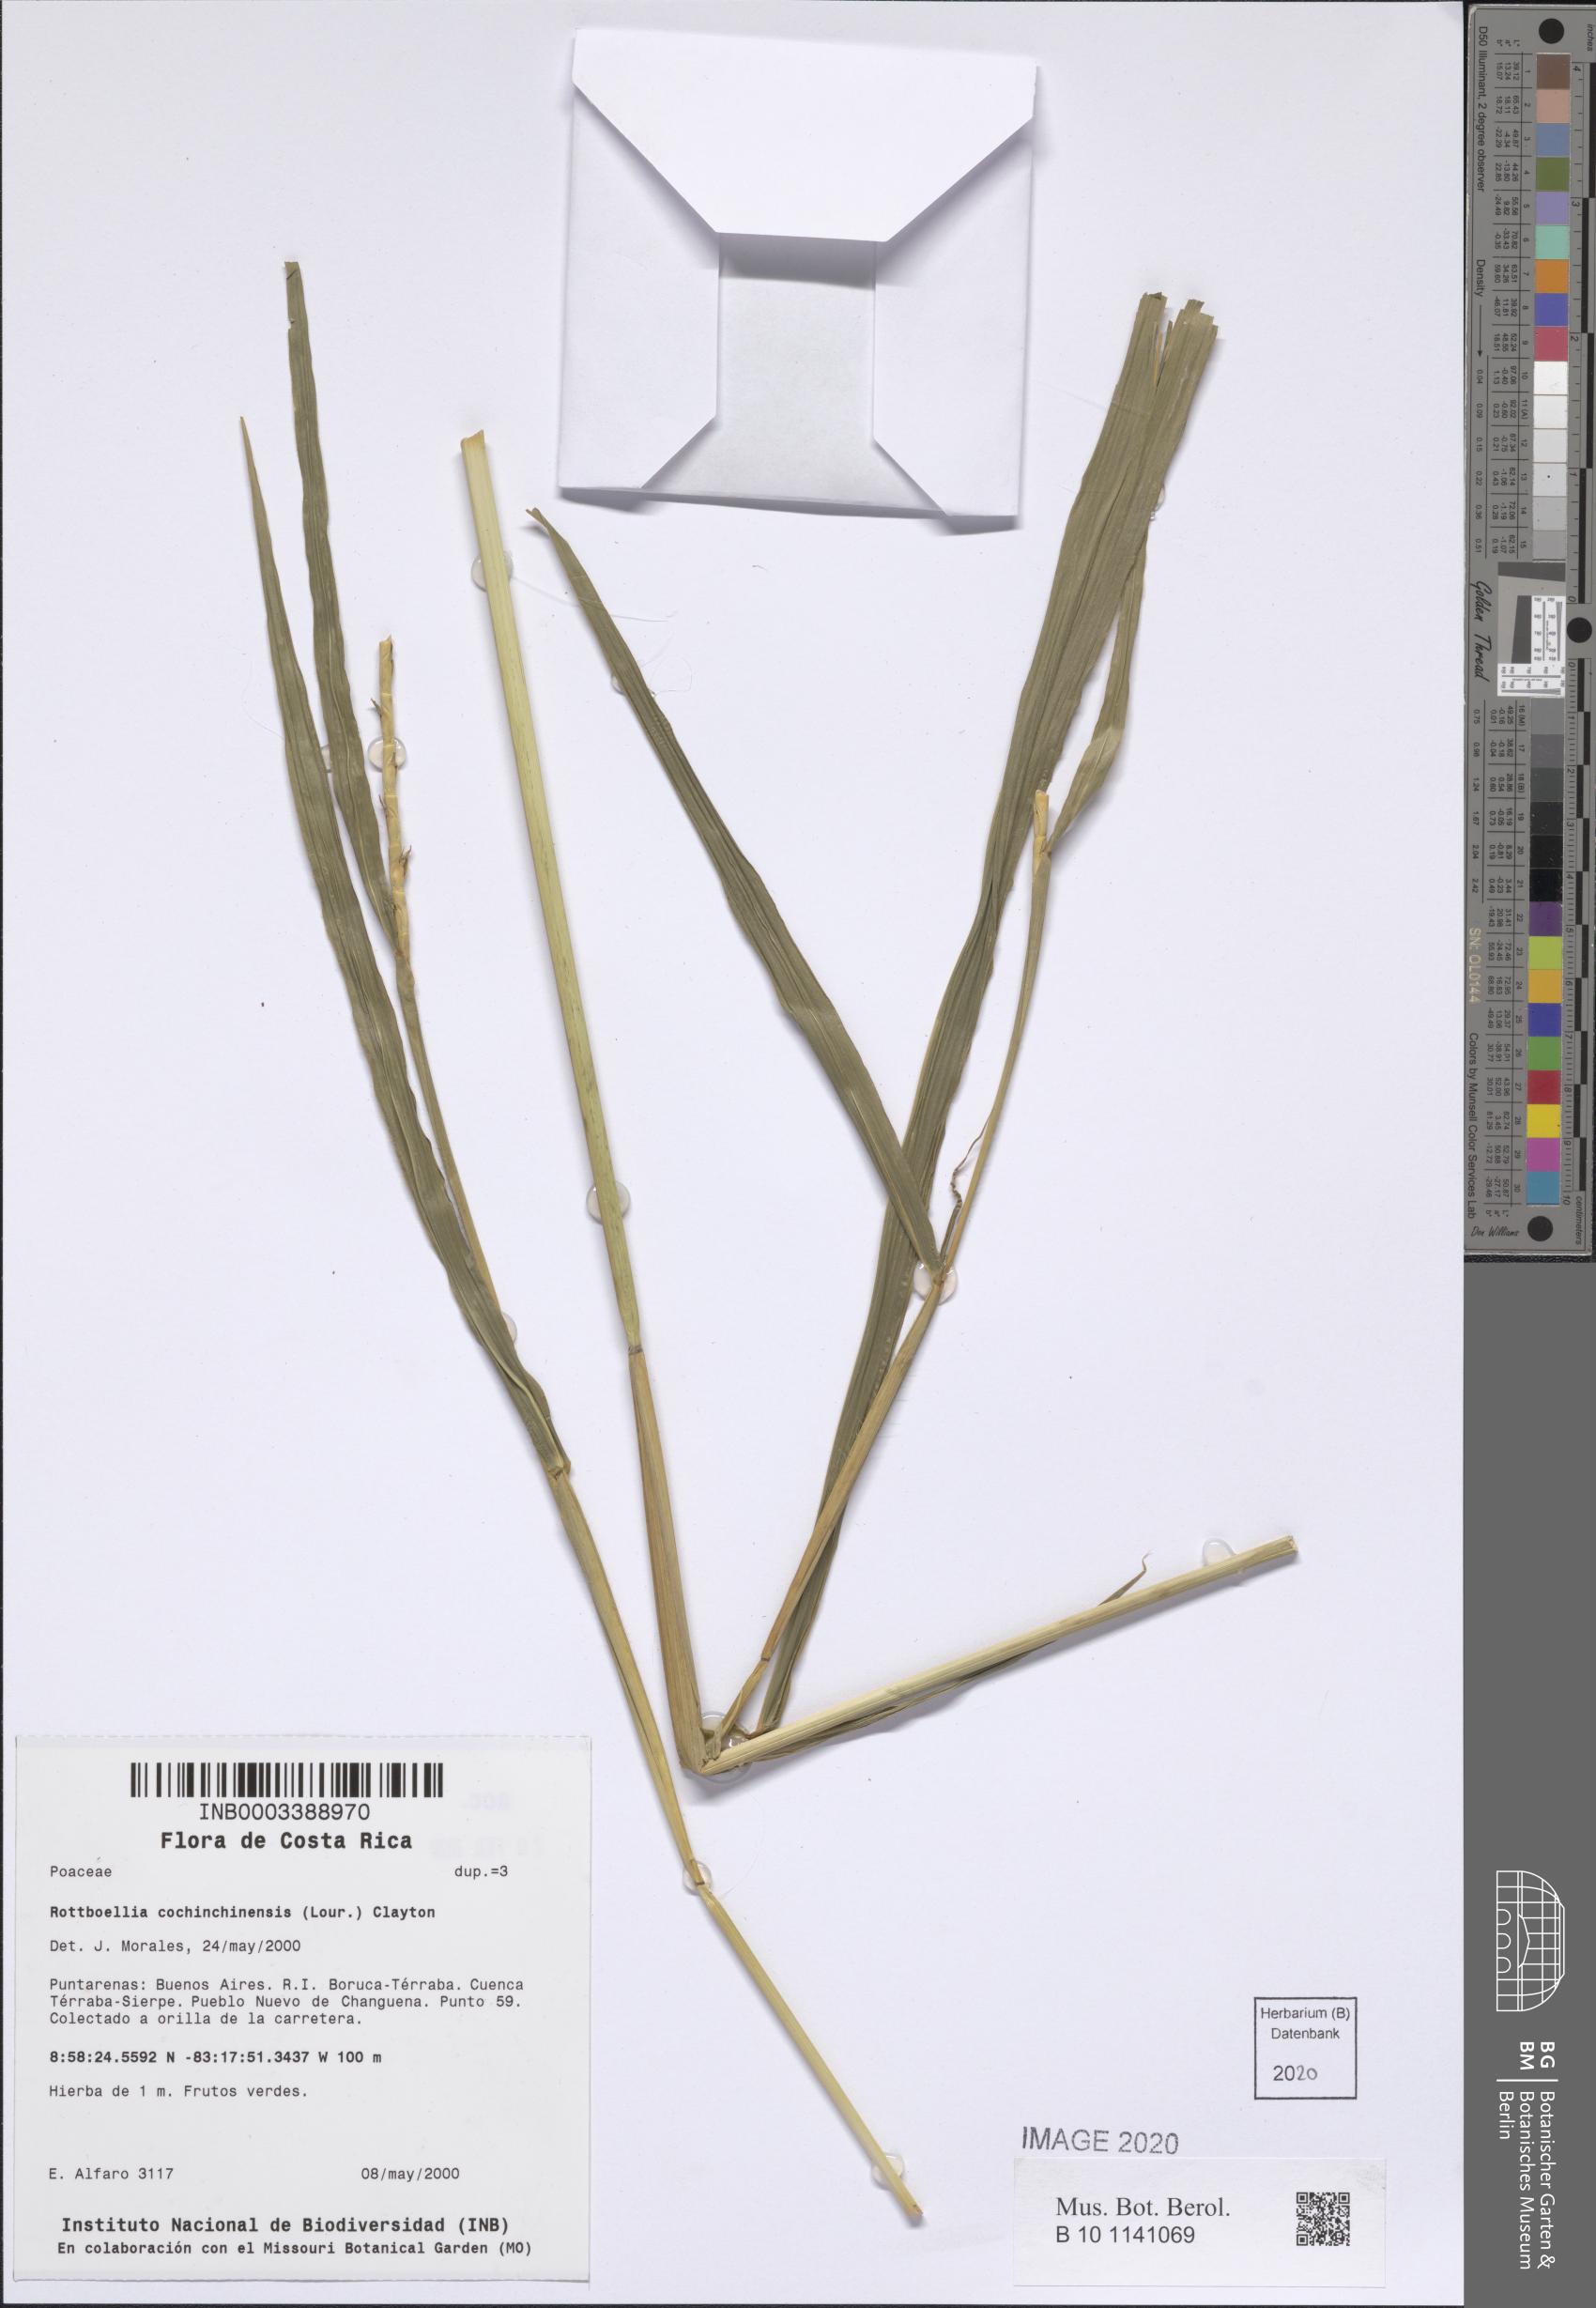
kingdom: Plantae
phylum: Tracheophyta
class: Liliopsida
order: Poales
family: Poaceae
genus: Rottboellia
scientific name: Rottboellia cochinchinensis
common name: Itchgrass
